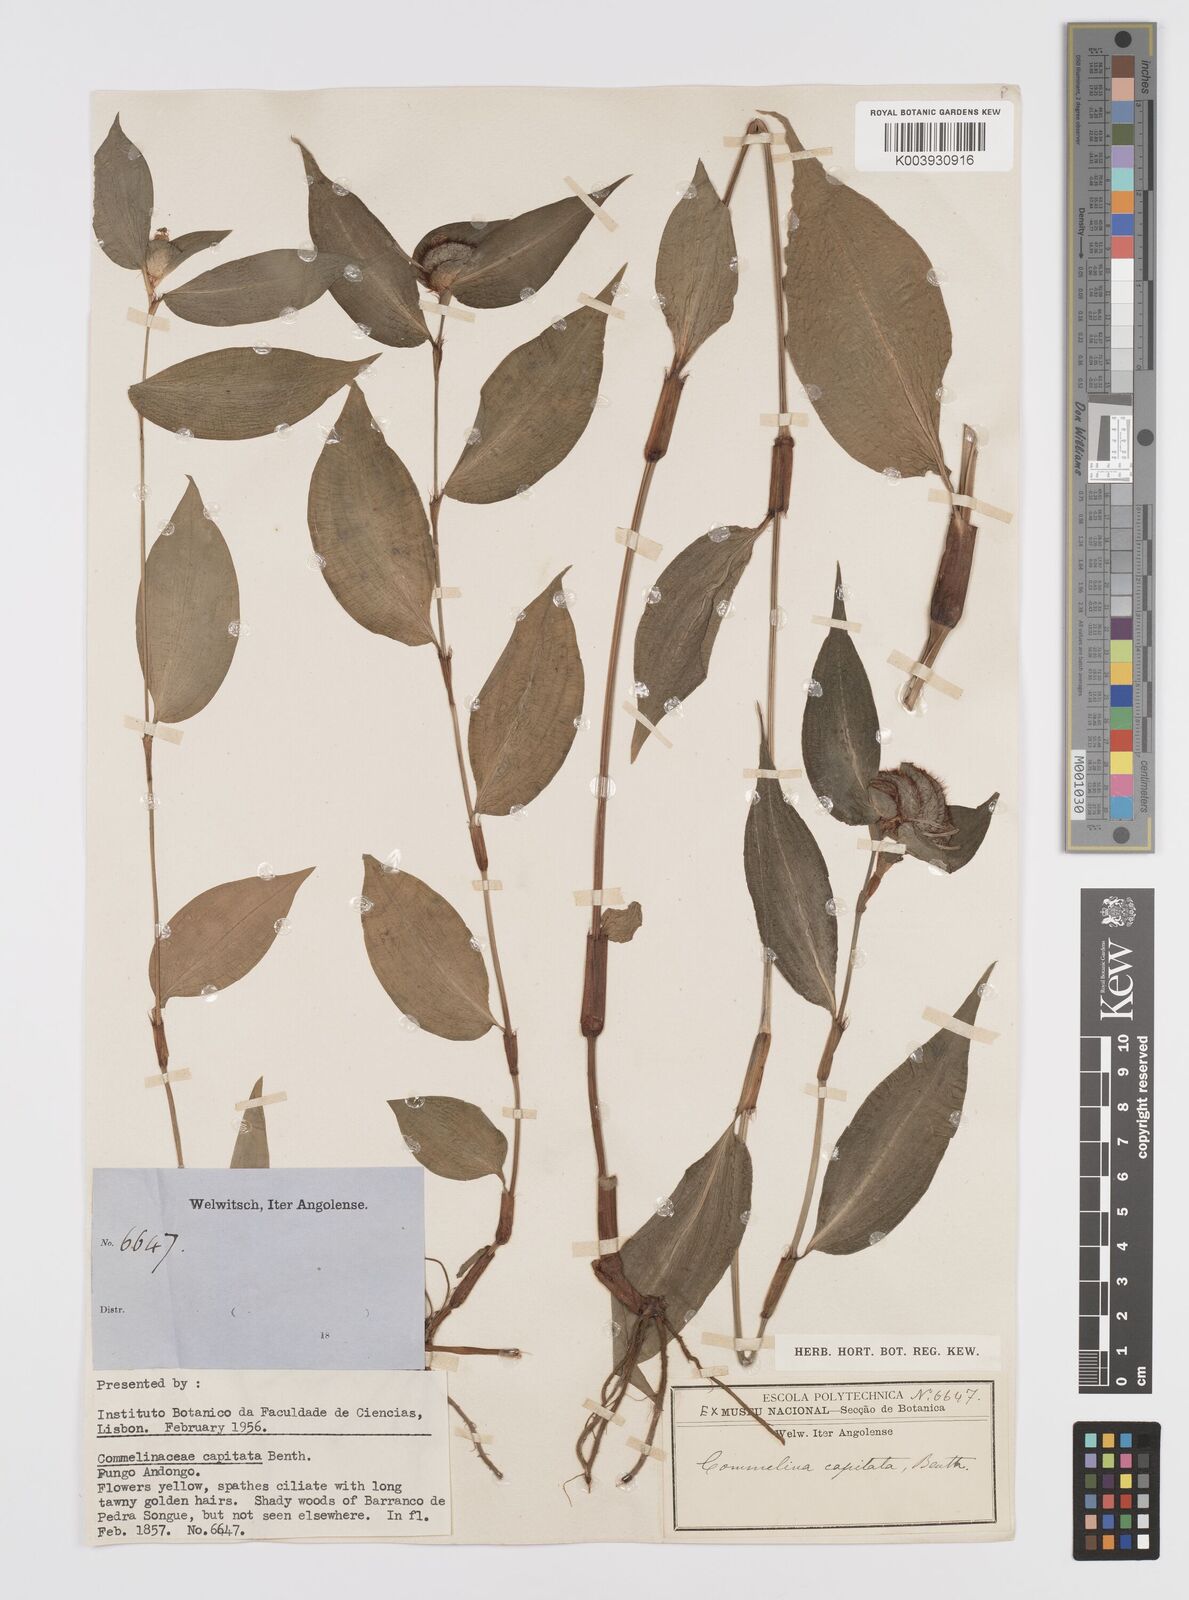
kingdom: Plantae
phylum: Tracheophyta
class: Liliopsida
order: Commelinales
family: Commelinaceae
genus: Commelina
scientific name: Commelina capitata
